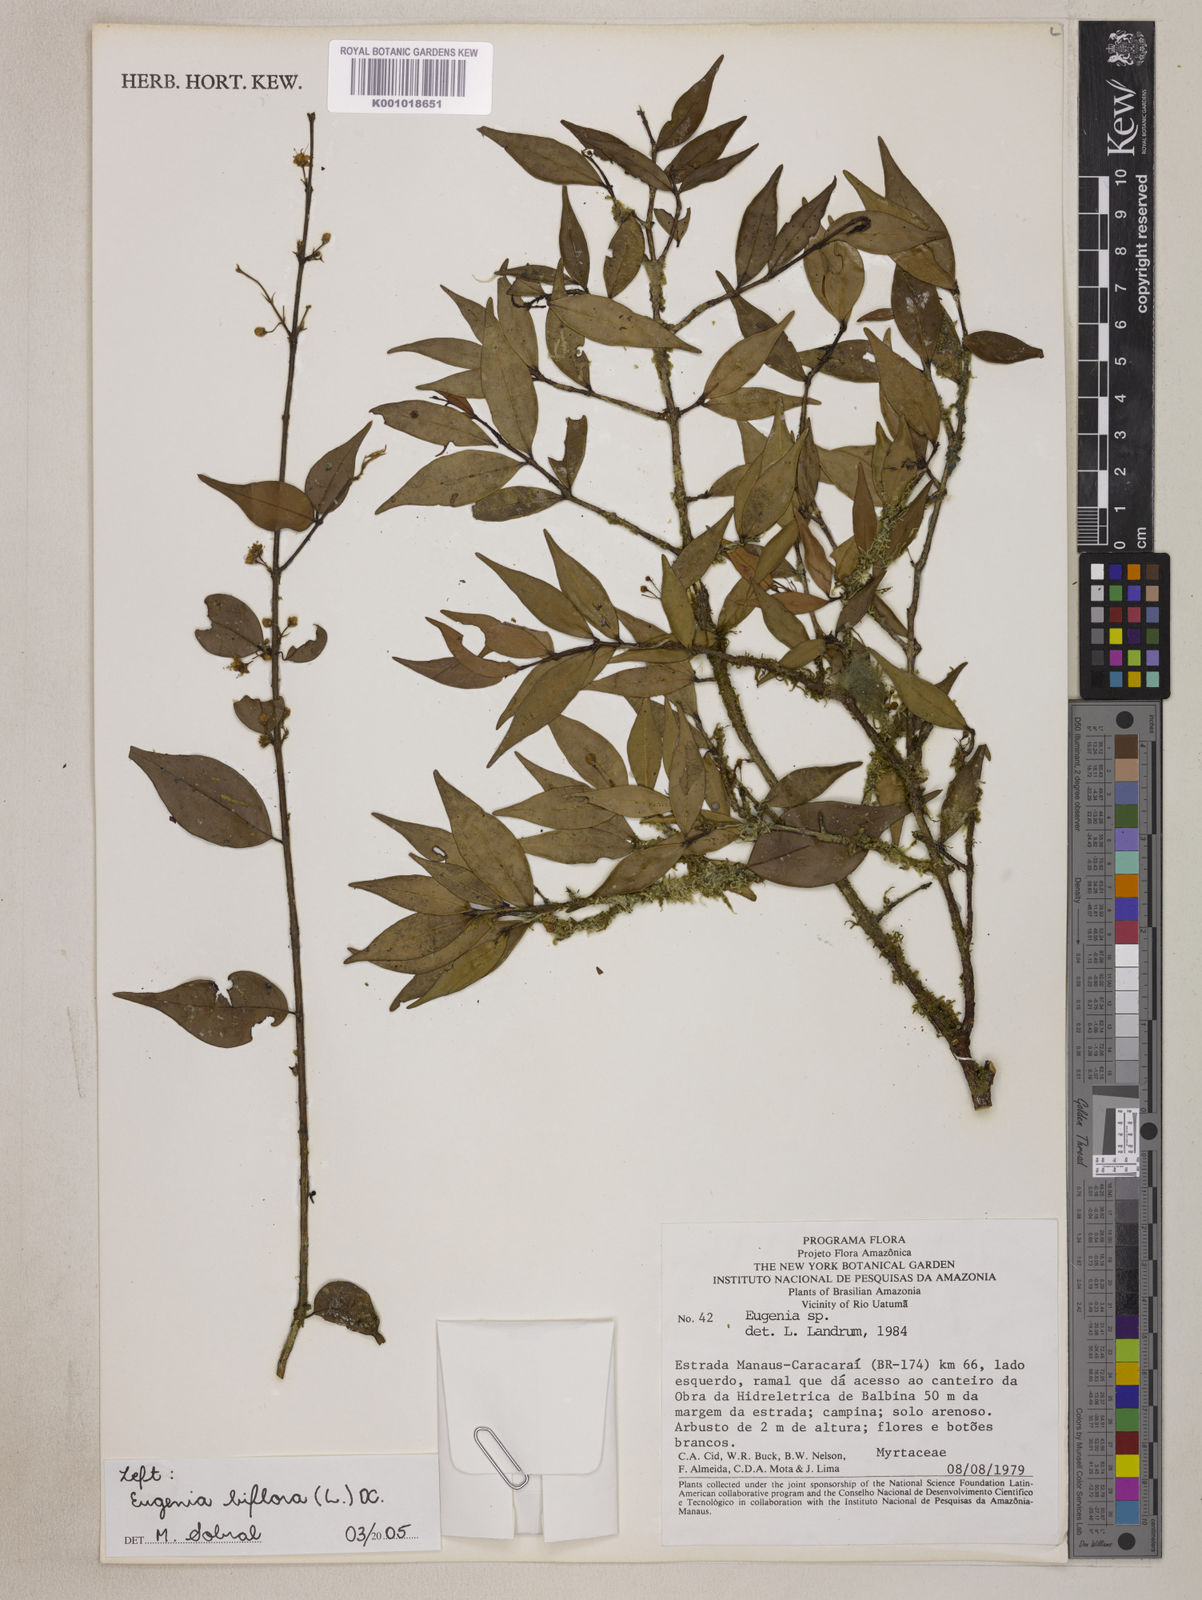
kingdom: Plantae
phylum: Tracheophyta
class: Magnoliopsida
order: Myrtales
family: Myrtaceae
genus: Eugenia
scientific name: Eugenia biflora
